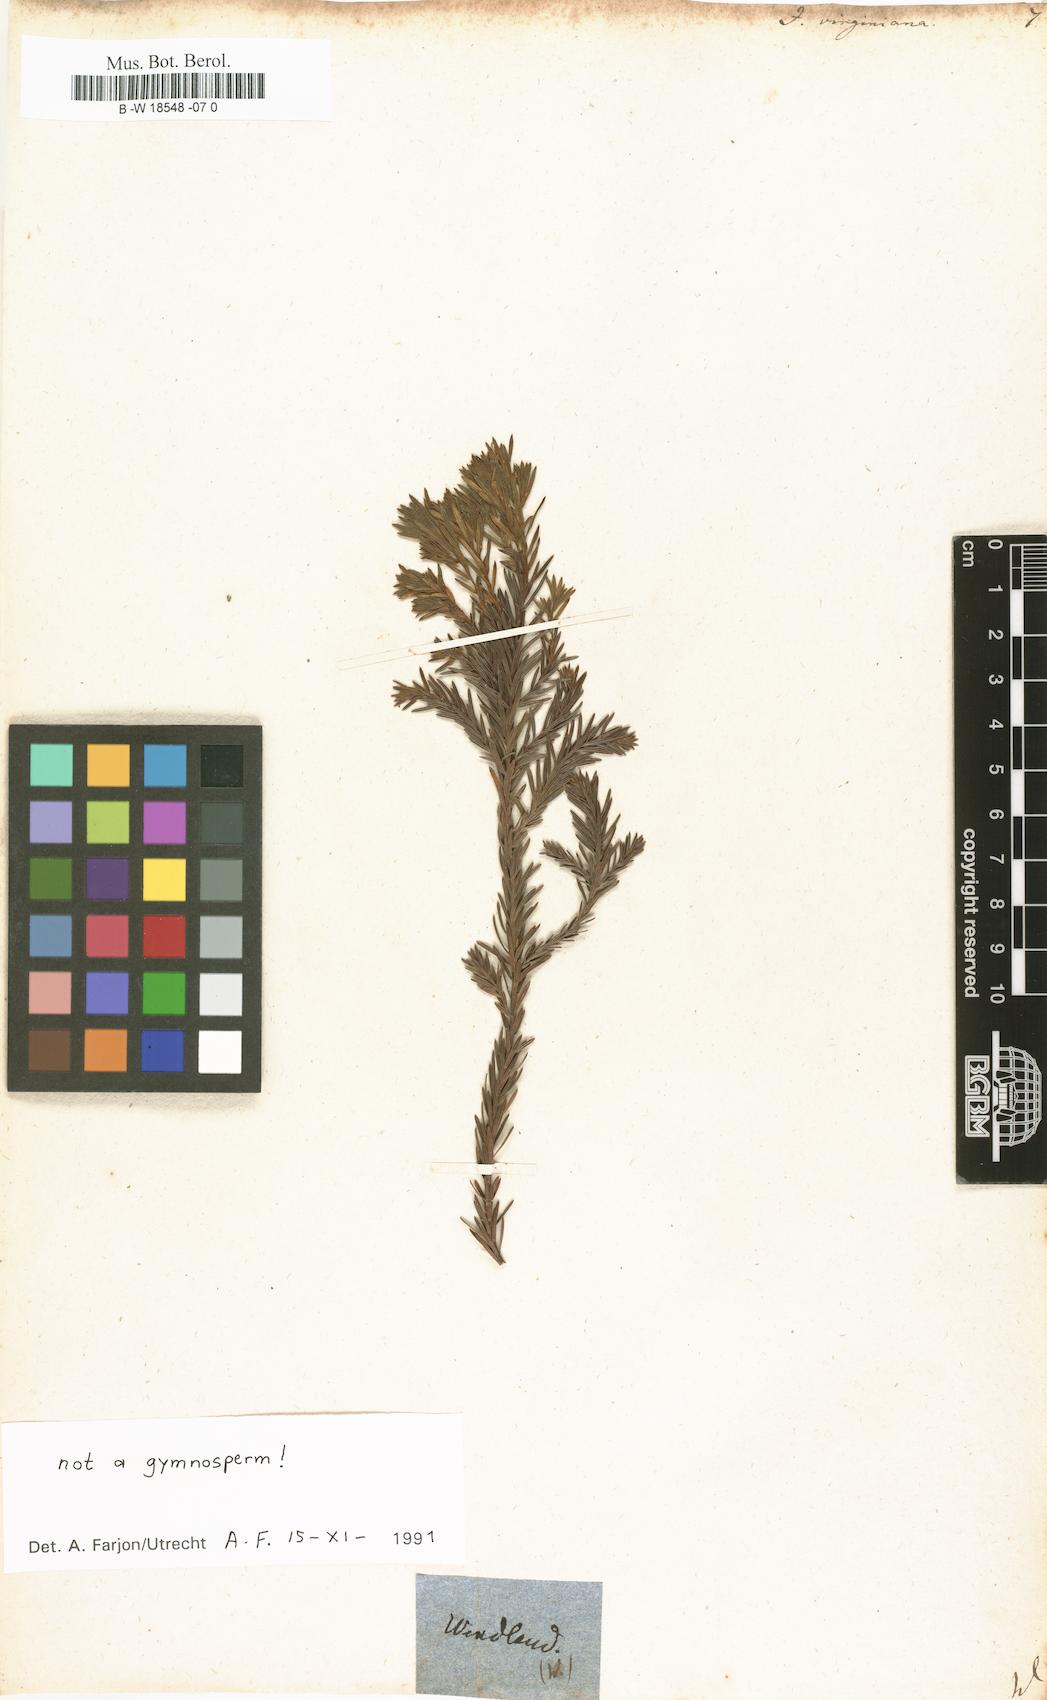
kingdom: Plantae
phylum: Tracheophyta
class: Pinopsida
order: Pinales
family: Cupressaceae
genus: Juniperus
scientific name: Juniperus virginiana
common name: Red juniper
